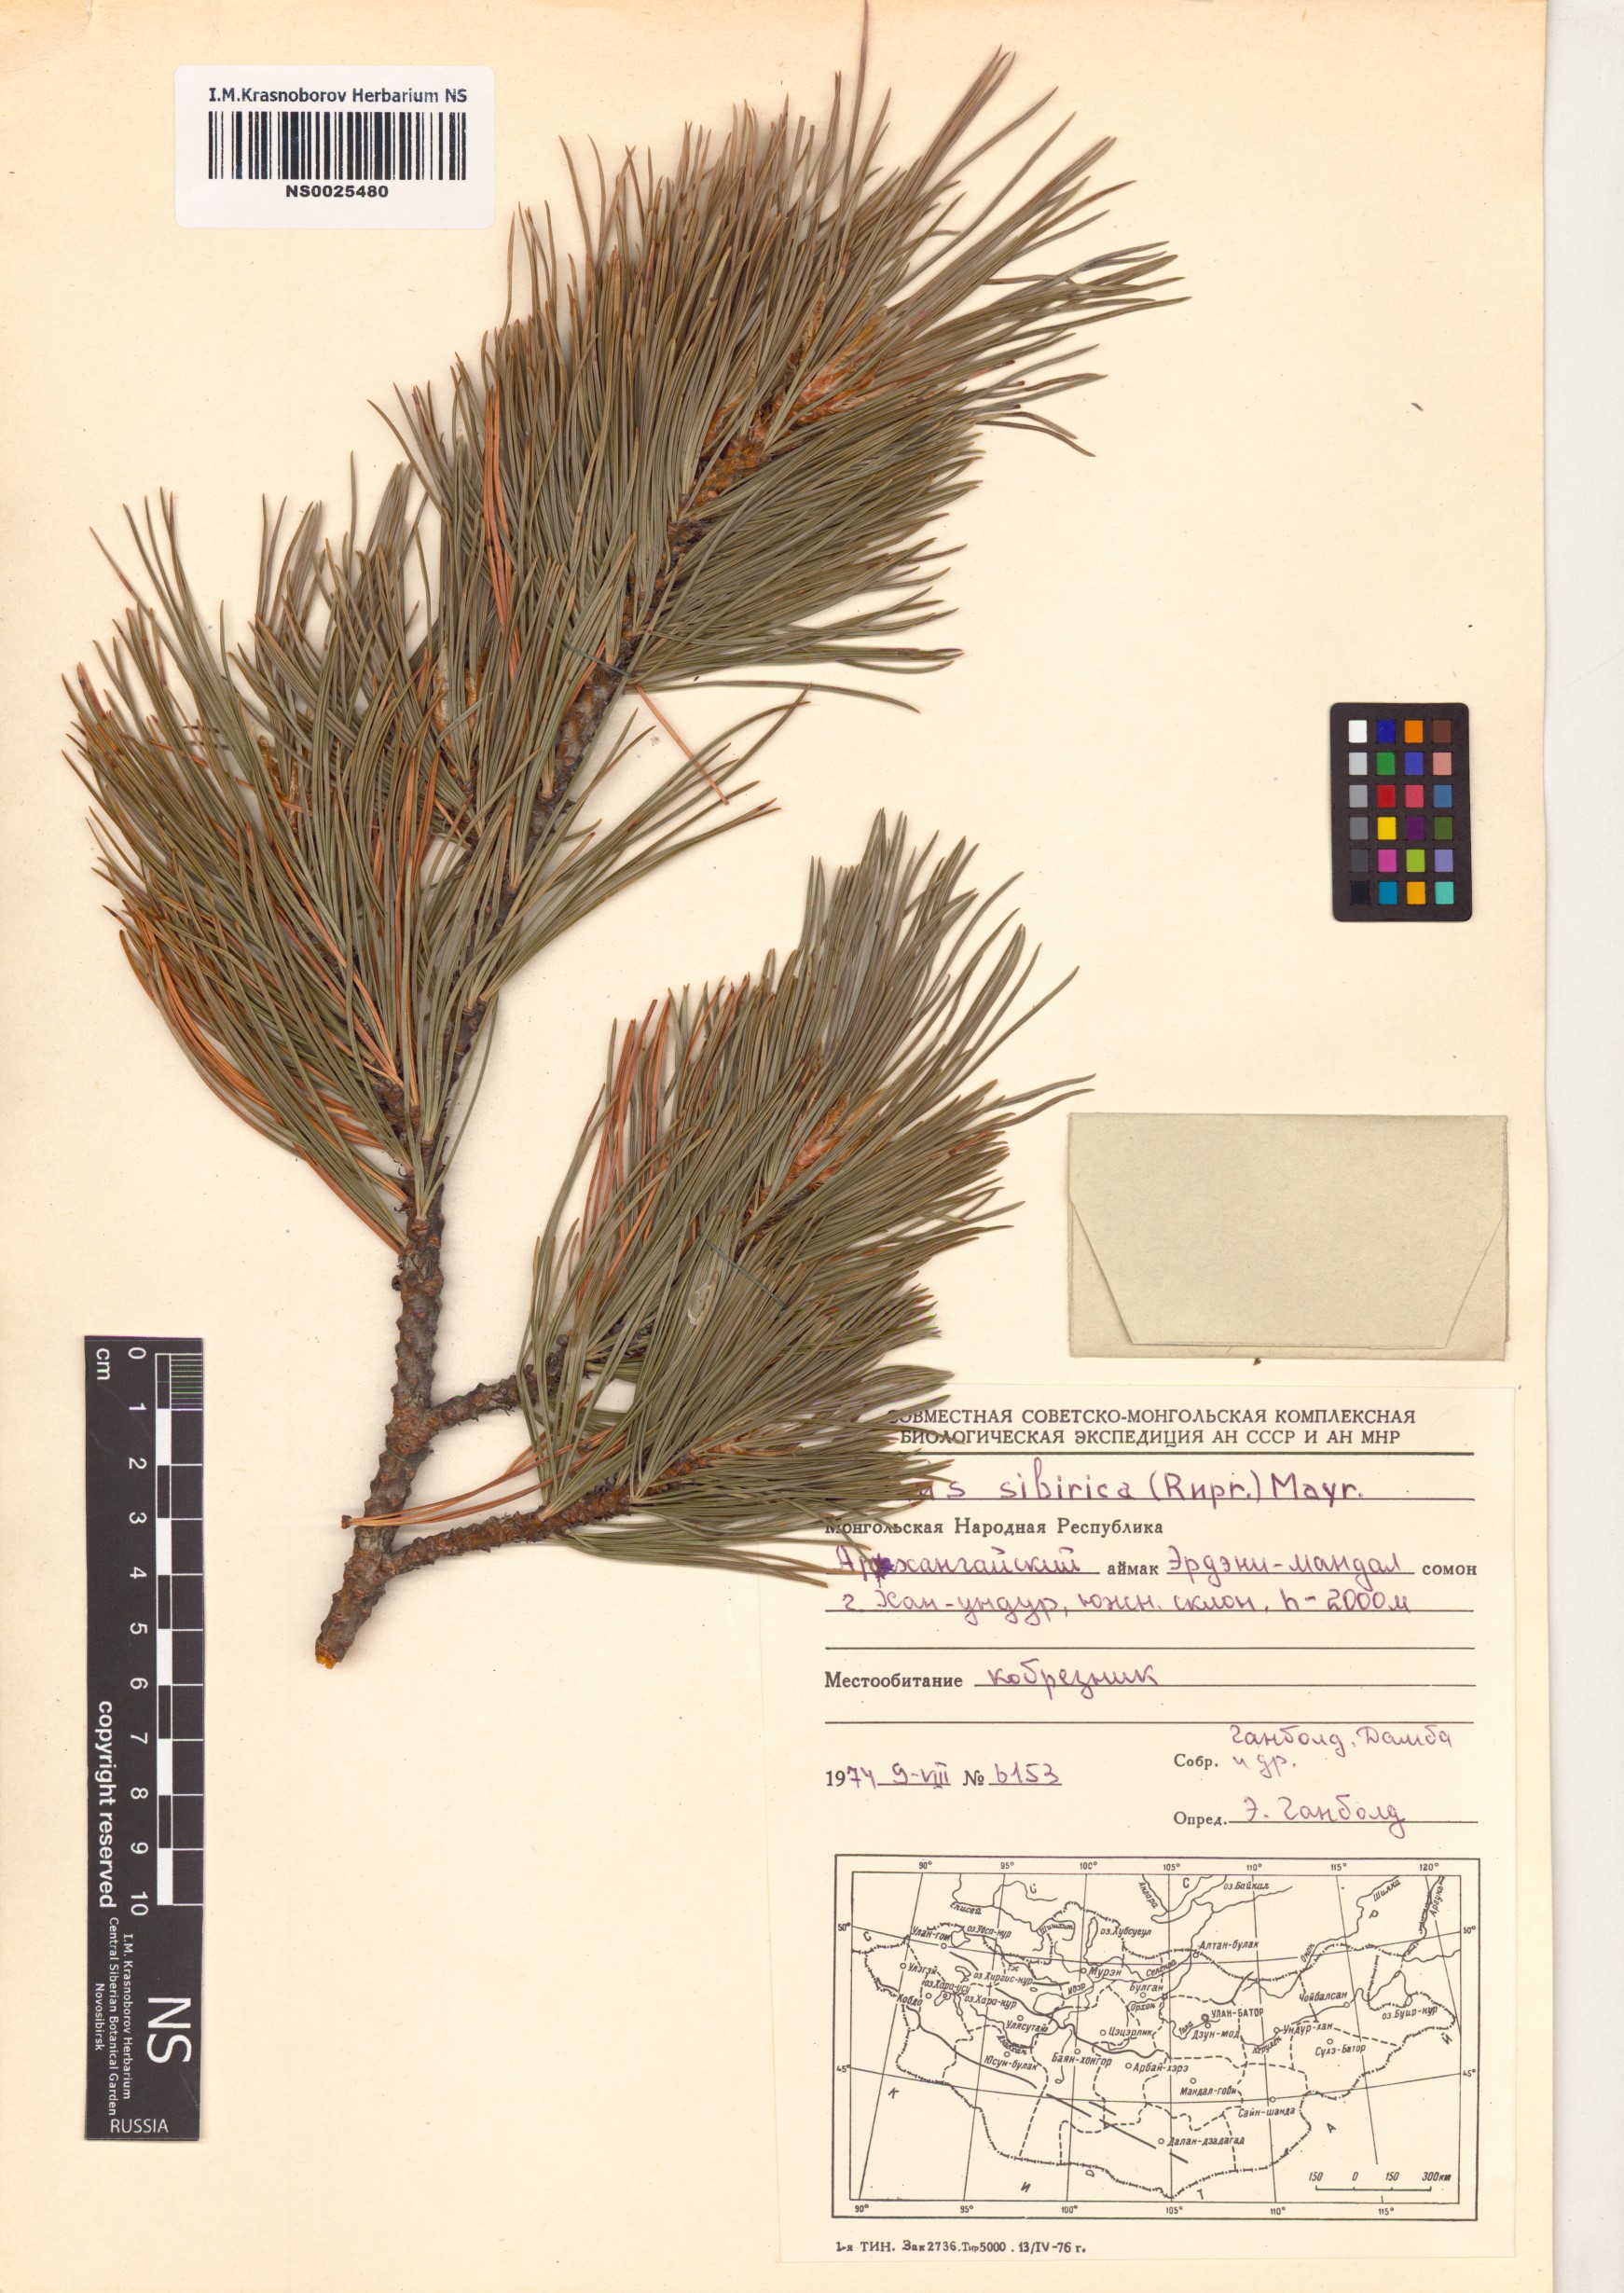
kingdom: Plantae
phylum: Tracheophyta
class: Pinopsida
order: Pinales
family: Pinaceae
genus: Pinus
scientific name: Pinus sibirica
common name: Siberian pine
